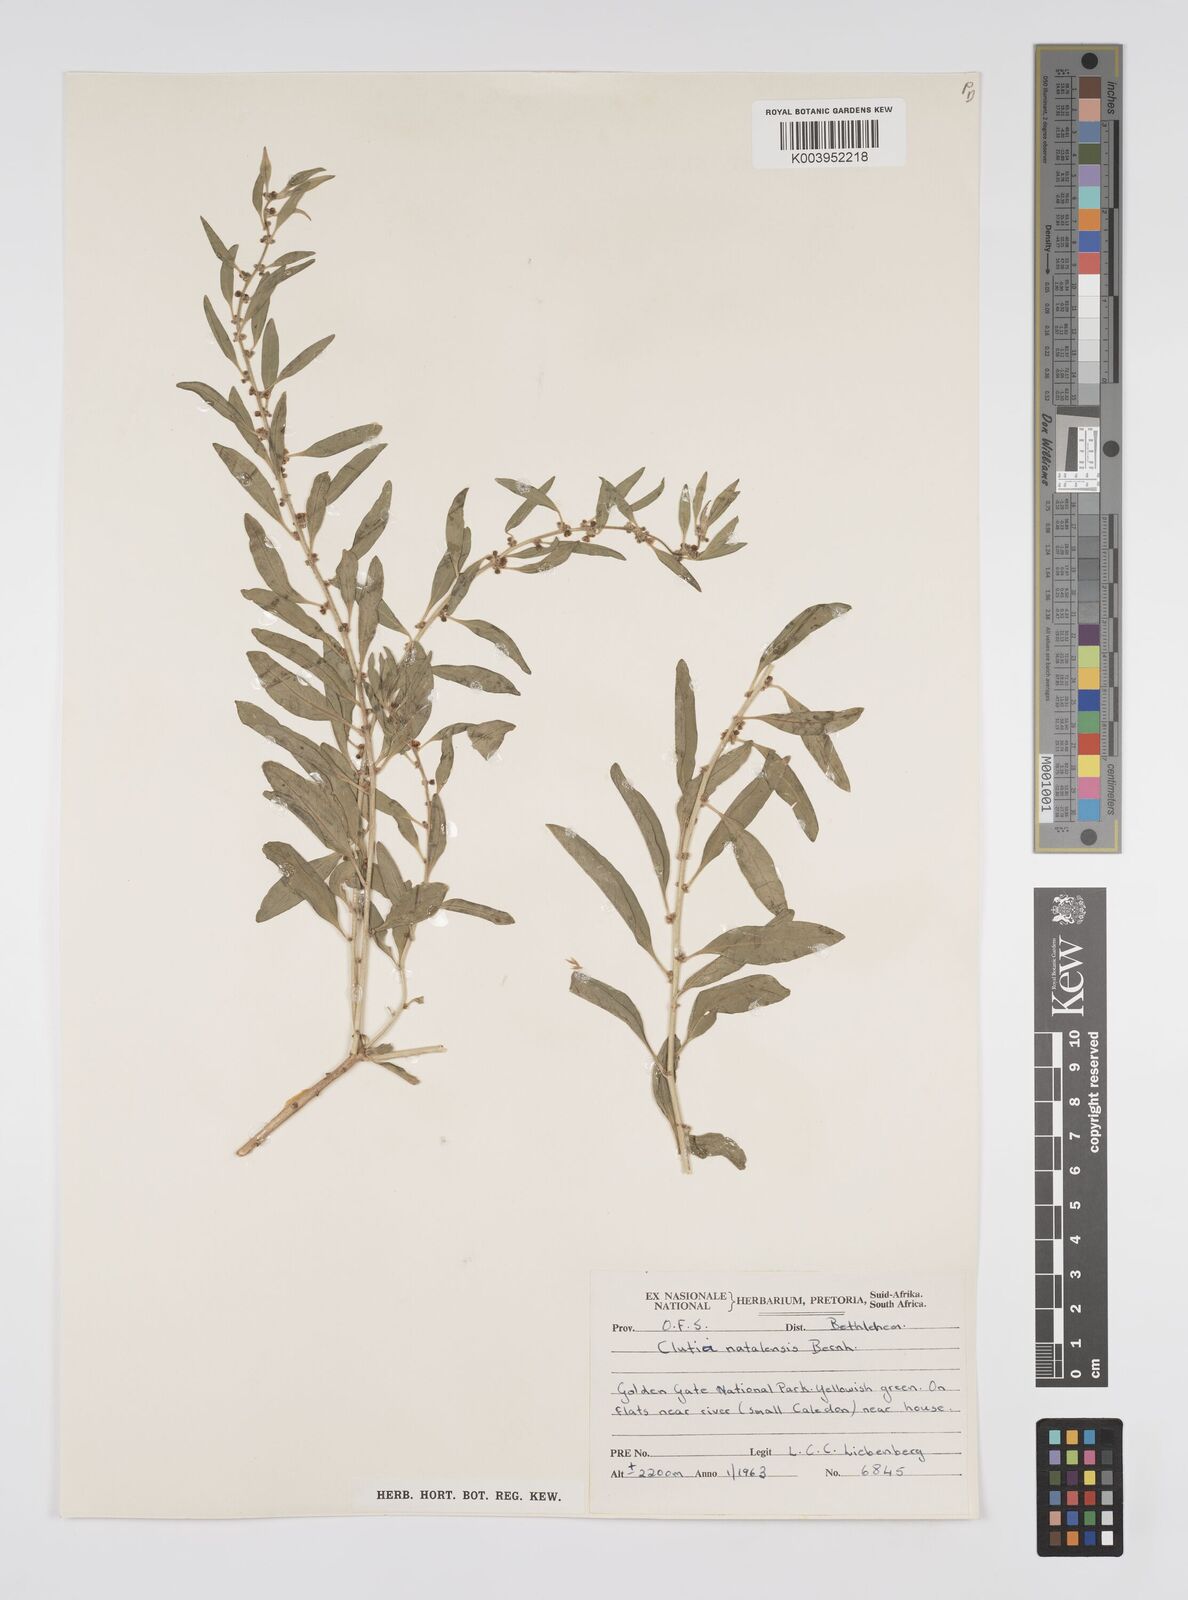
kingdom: Plantae
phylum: Tracheophyta
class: Magnoliopsida
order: Malpighiales
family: Peraceae
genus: Clutia
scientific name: Clutia natalensis
